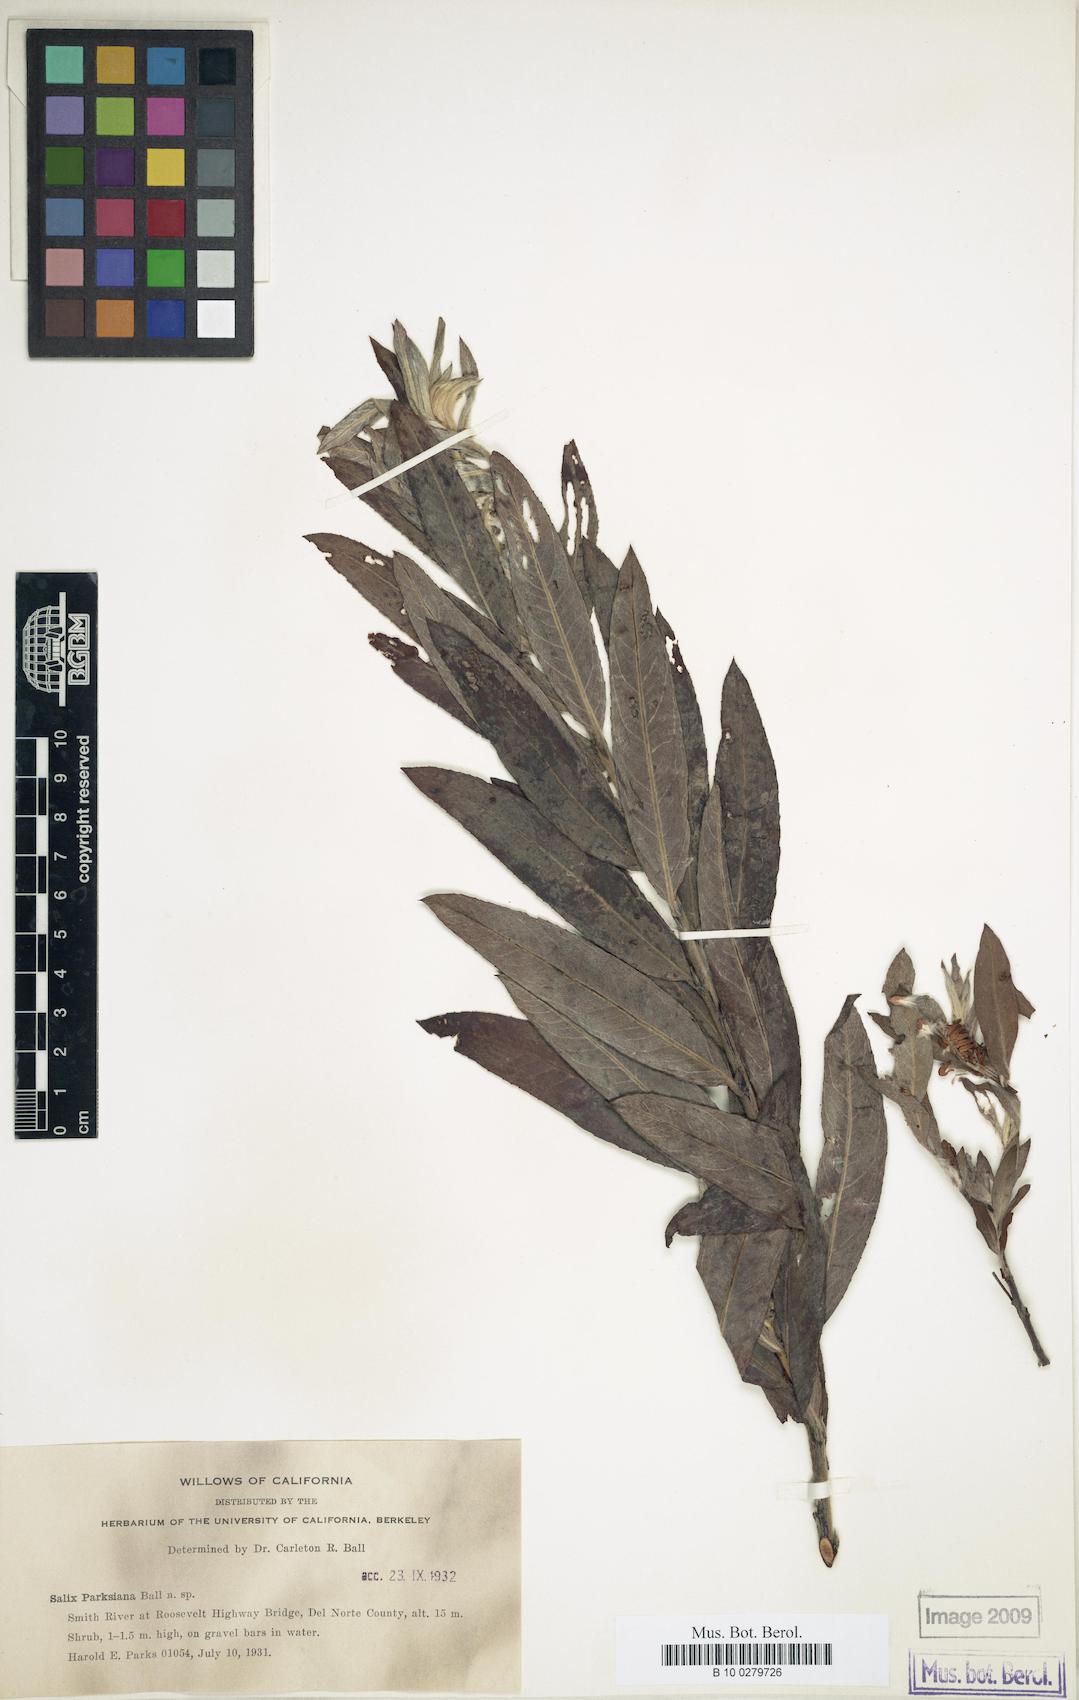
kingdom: Plantae
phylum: Tracheophyta
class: Magnoliopsida
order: Malpighiales
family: Salicaceae
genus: Salix
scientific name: Salix melanopsis
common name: Dusky willow
